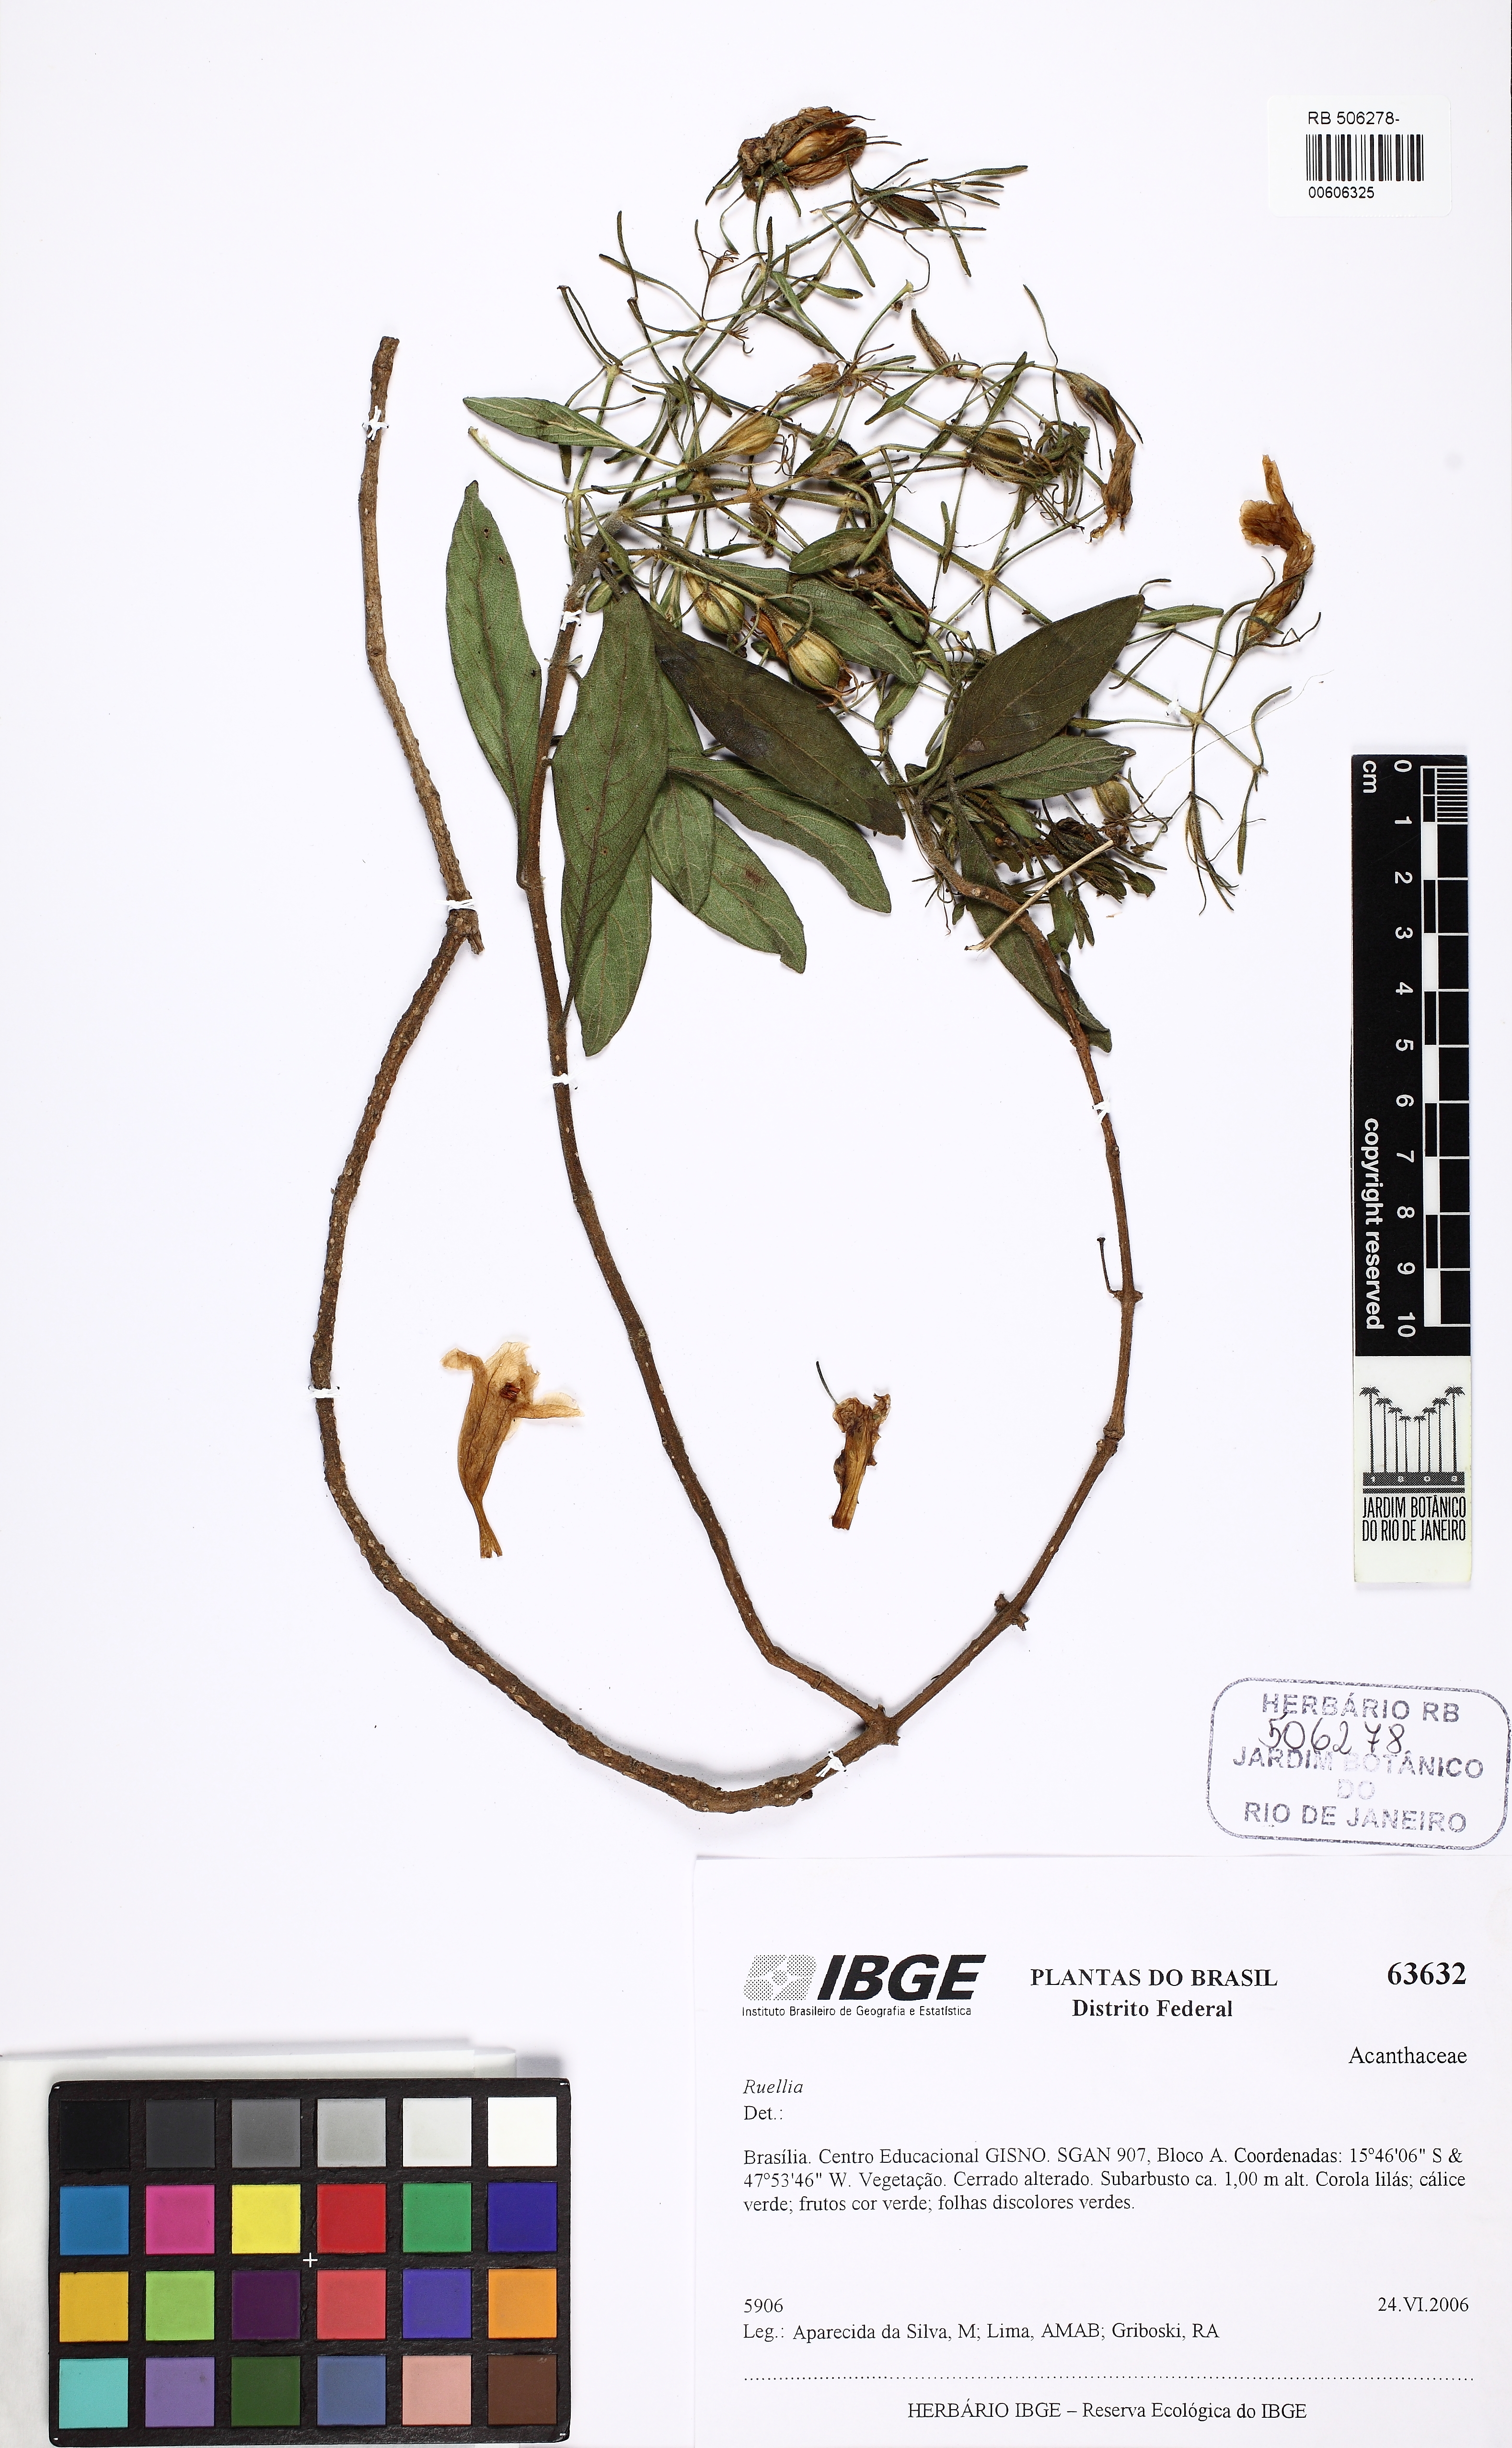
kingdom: Plantae
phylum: Tracheophyta
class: Magnoliopsida
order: Lamiales
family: Acanthaceae
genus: Ruellia
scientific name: Ruellia incomta
